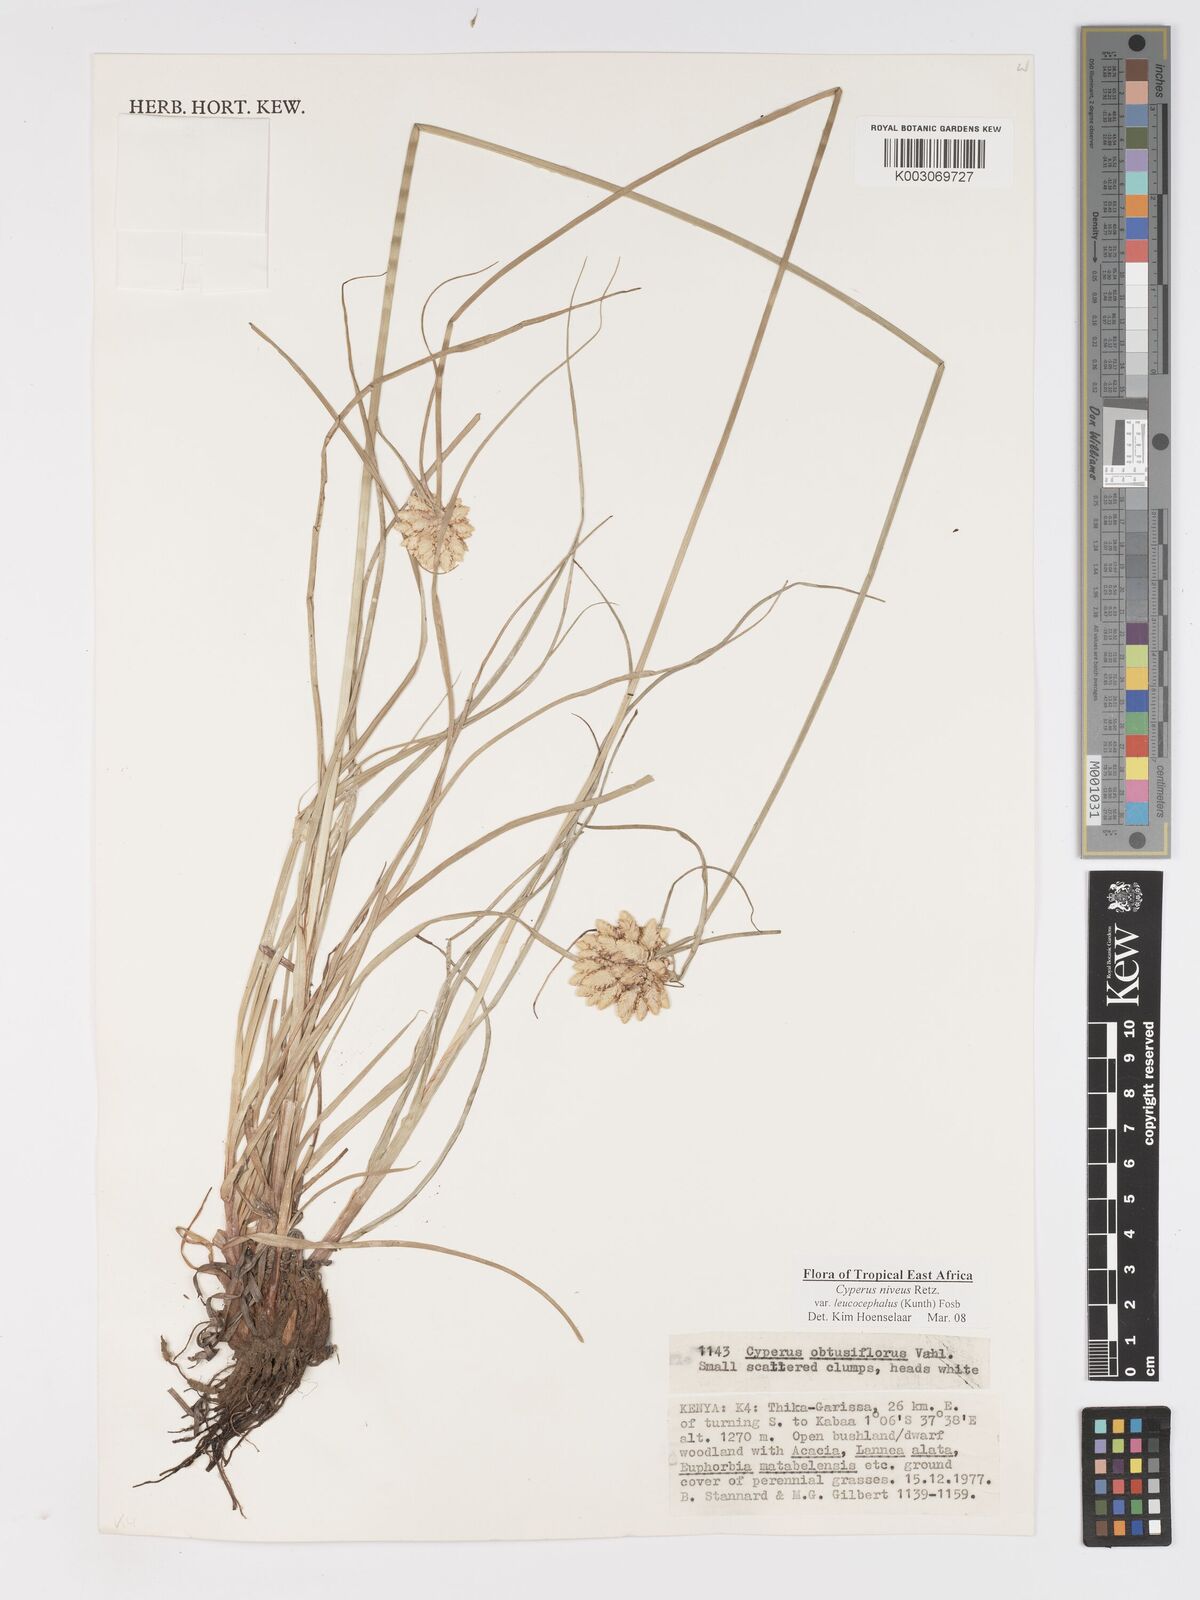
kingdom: Plantae
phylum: Tracheophyta
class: Liliopsida
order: Poales
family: Cyperaceae
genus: Cyperus
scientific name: Cyperus niveus
